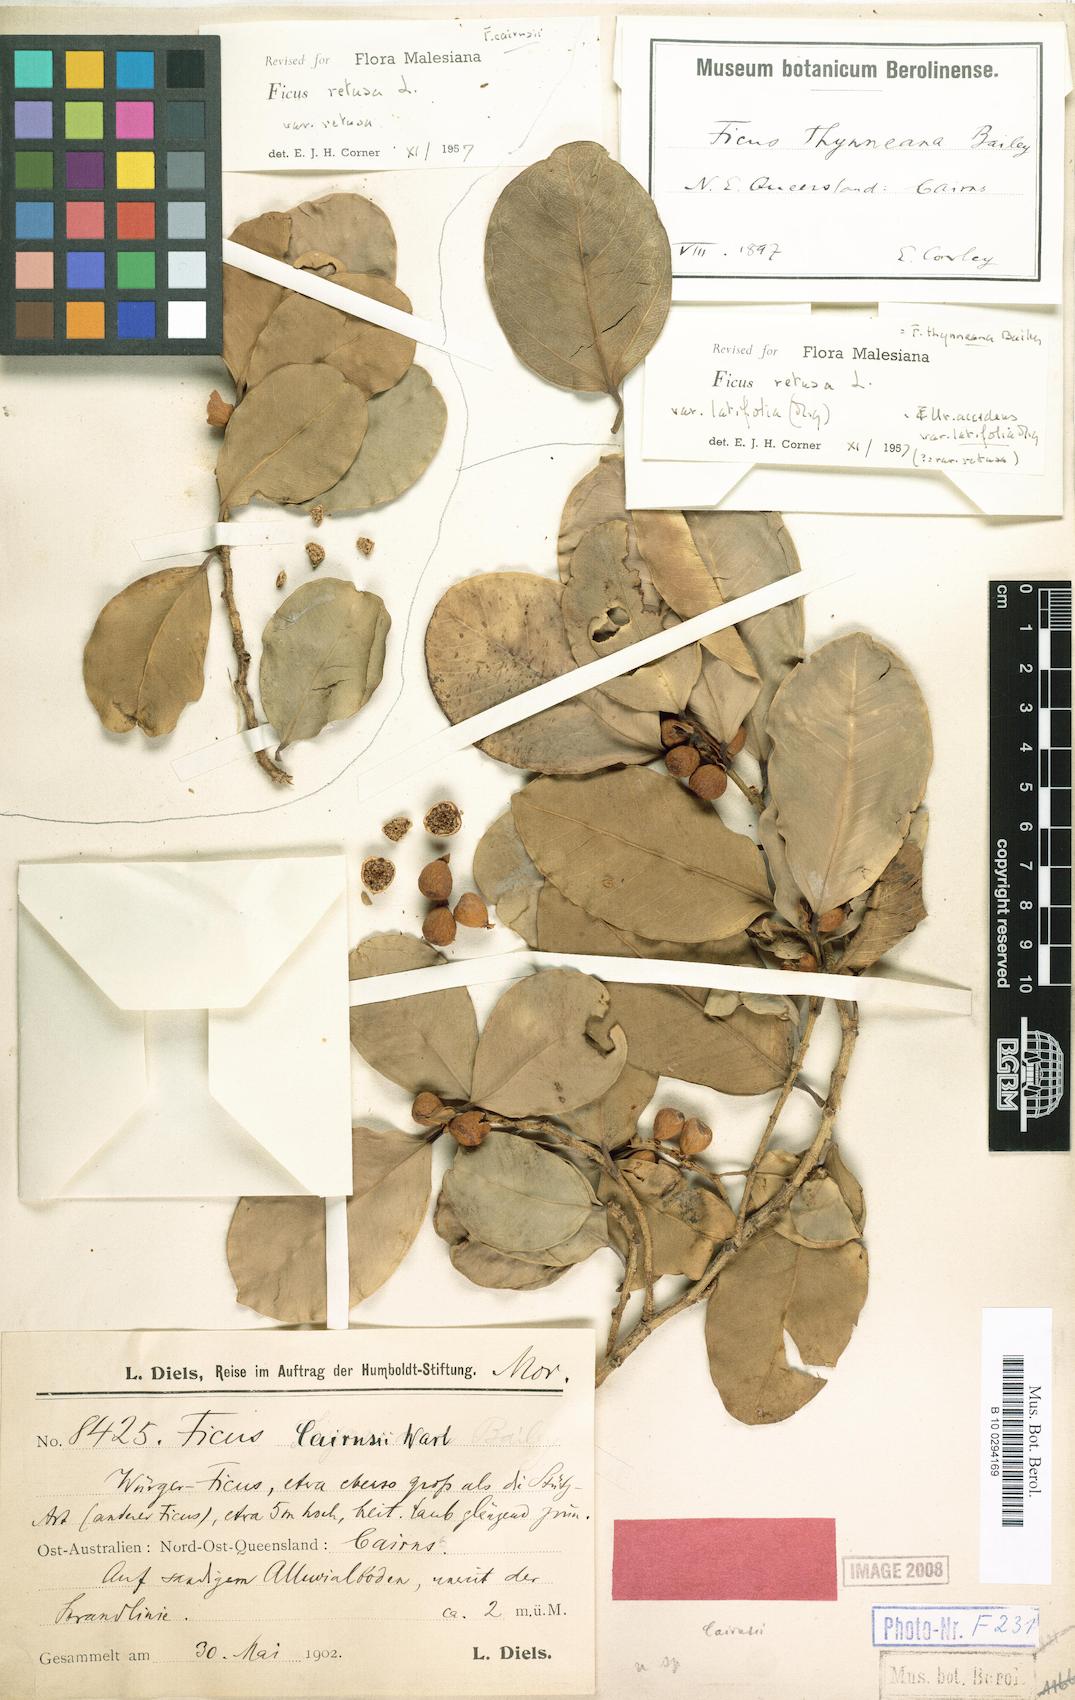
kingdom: Plantae
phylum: Tracheophyta
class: Magnoliopsida
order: Rosales
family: Moraceae
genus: Ficus
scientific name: Ficus microcarpa
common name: Chinese banyan
